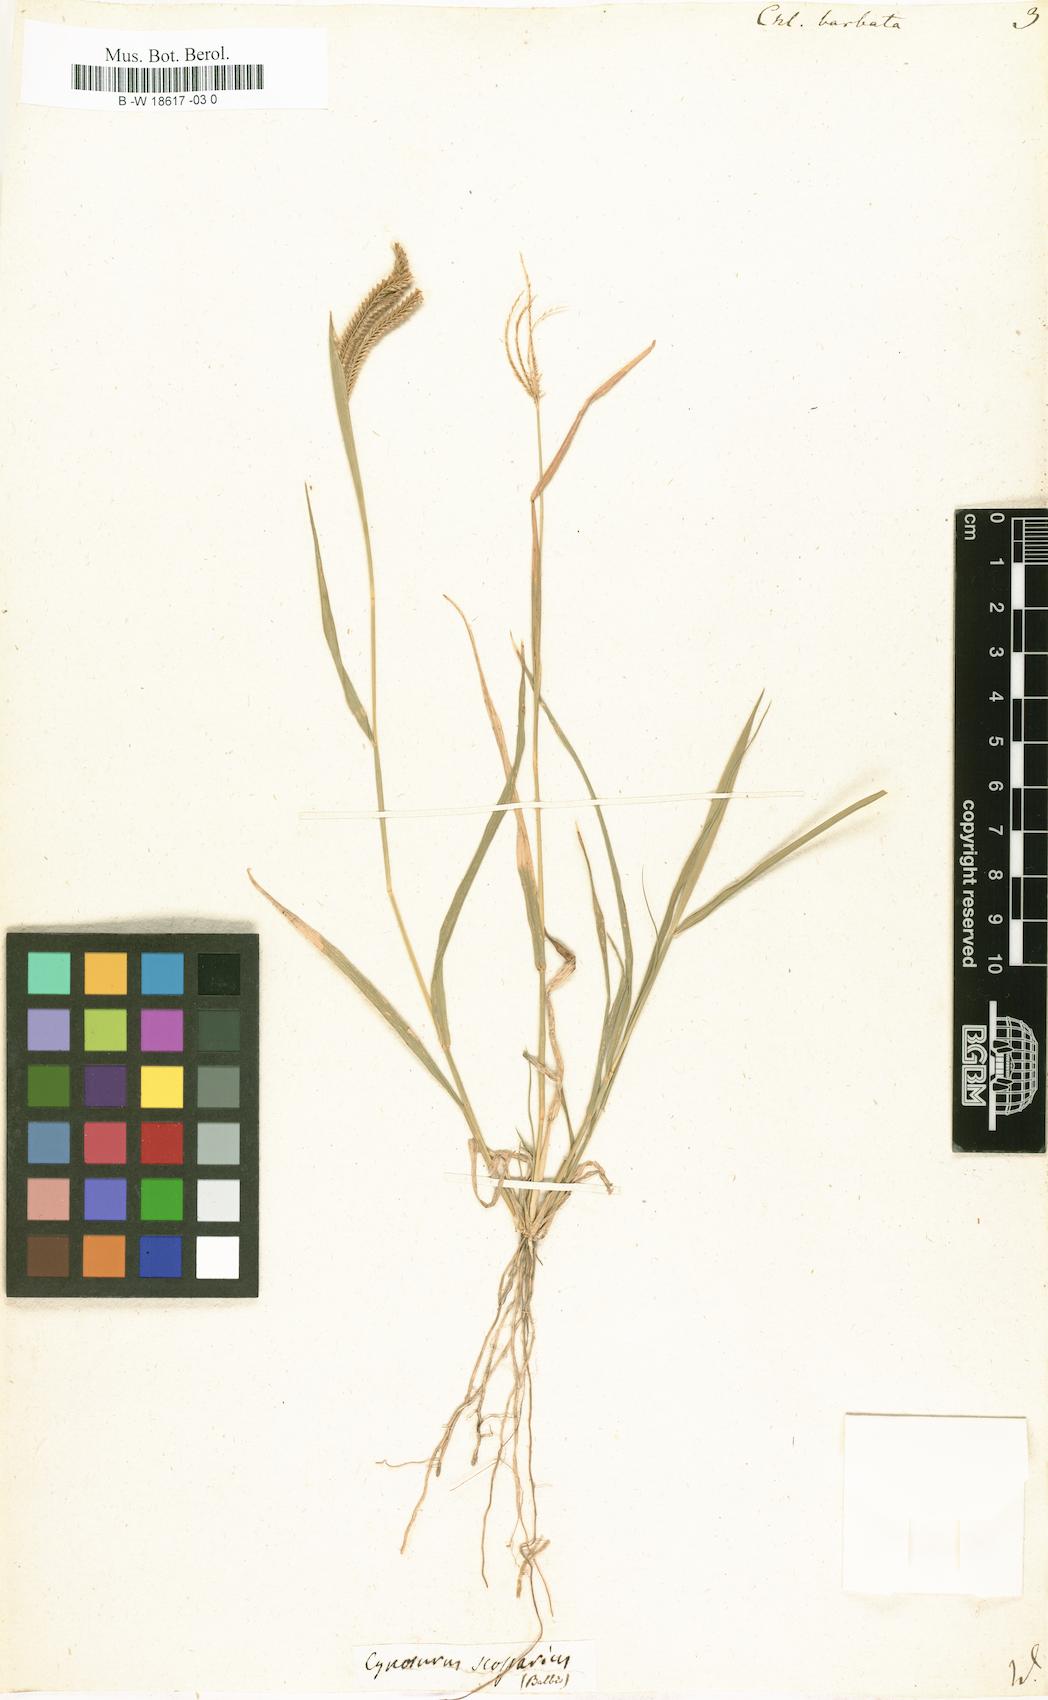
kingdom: Plantae
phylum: Tracheophyta
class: Liliopsida
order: Poales
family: Poaceae
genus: Chloris
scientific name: Chloris barbata
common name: Swollen fingergrass
